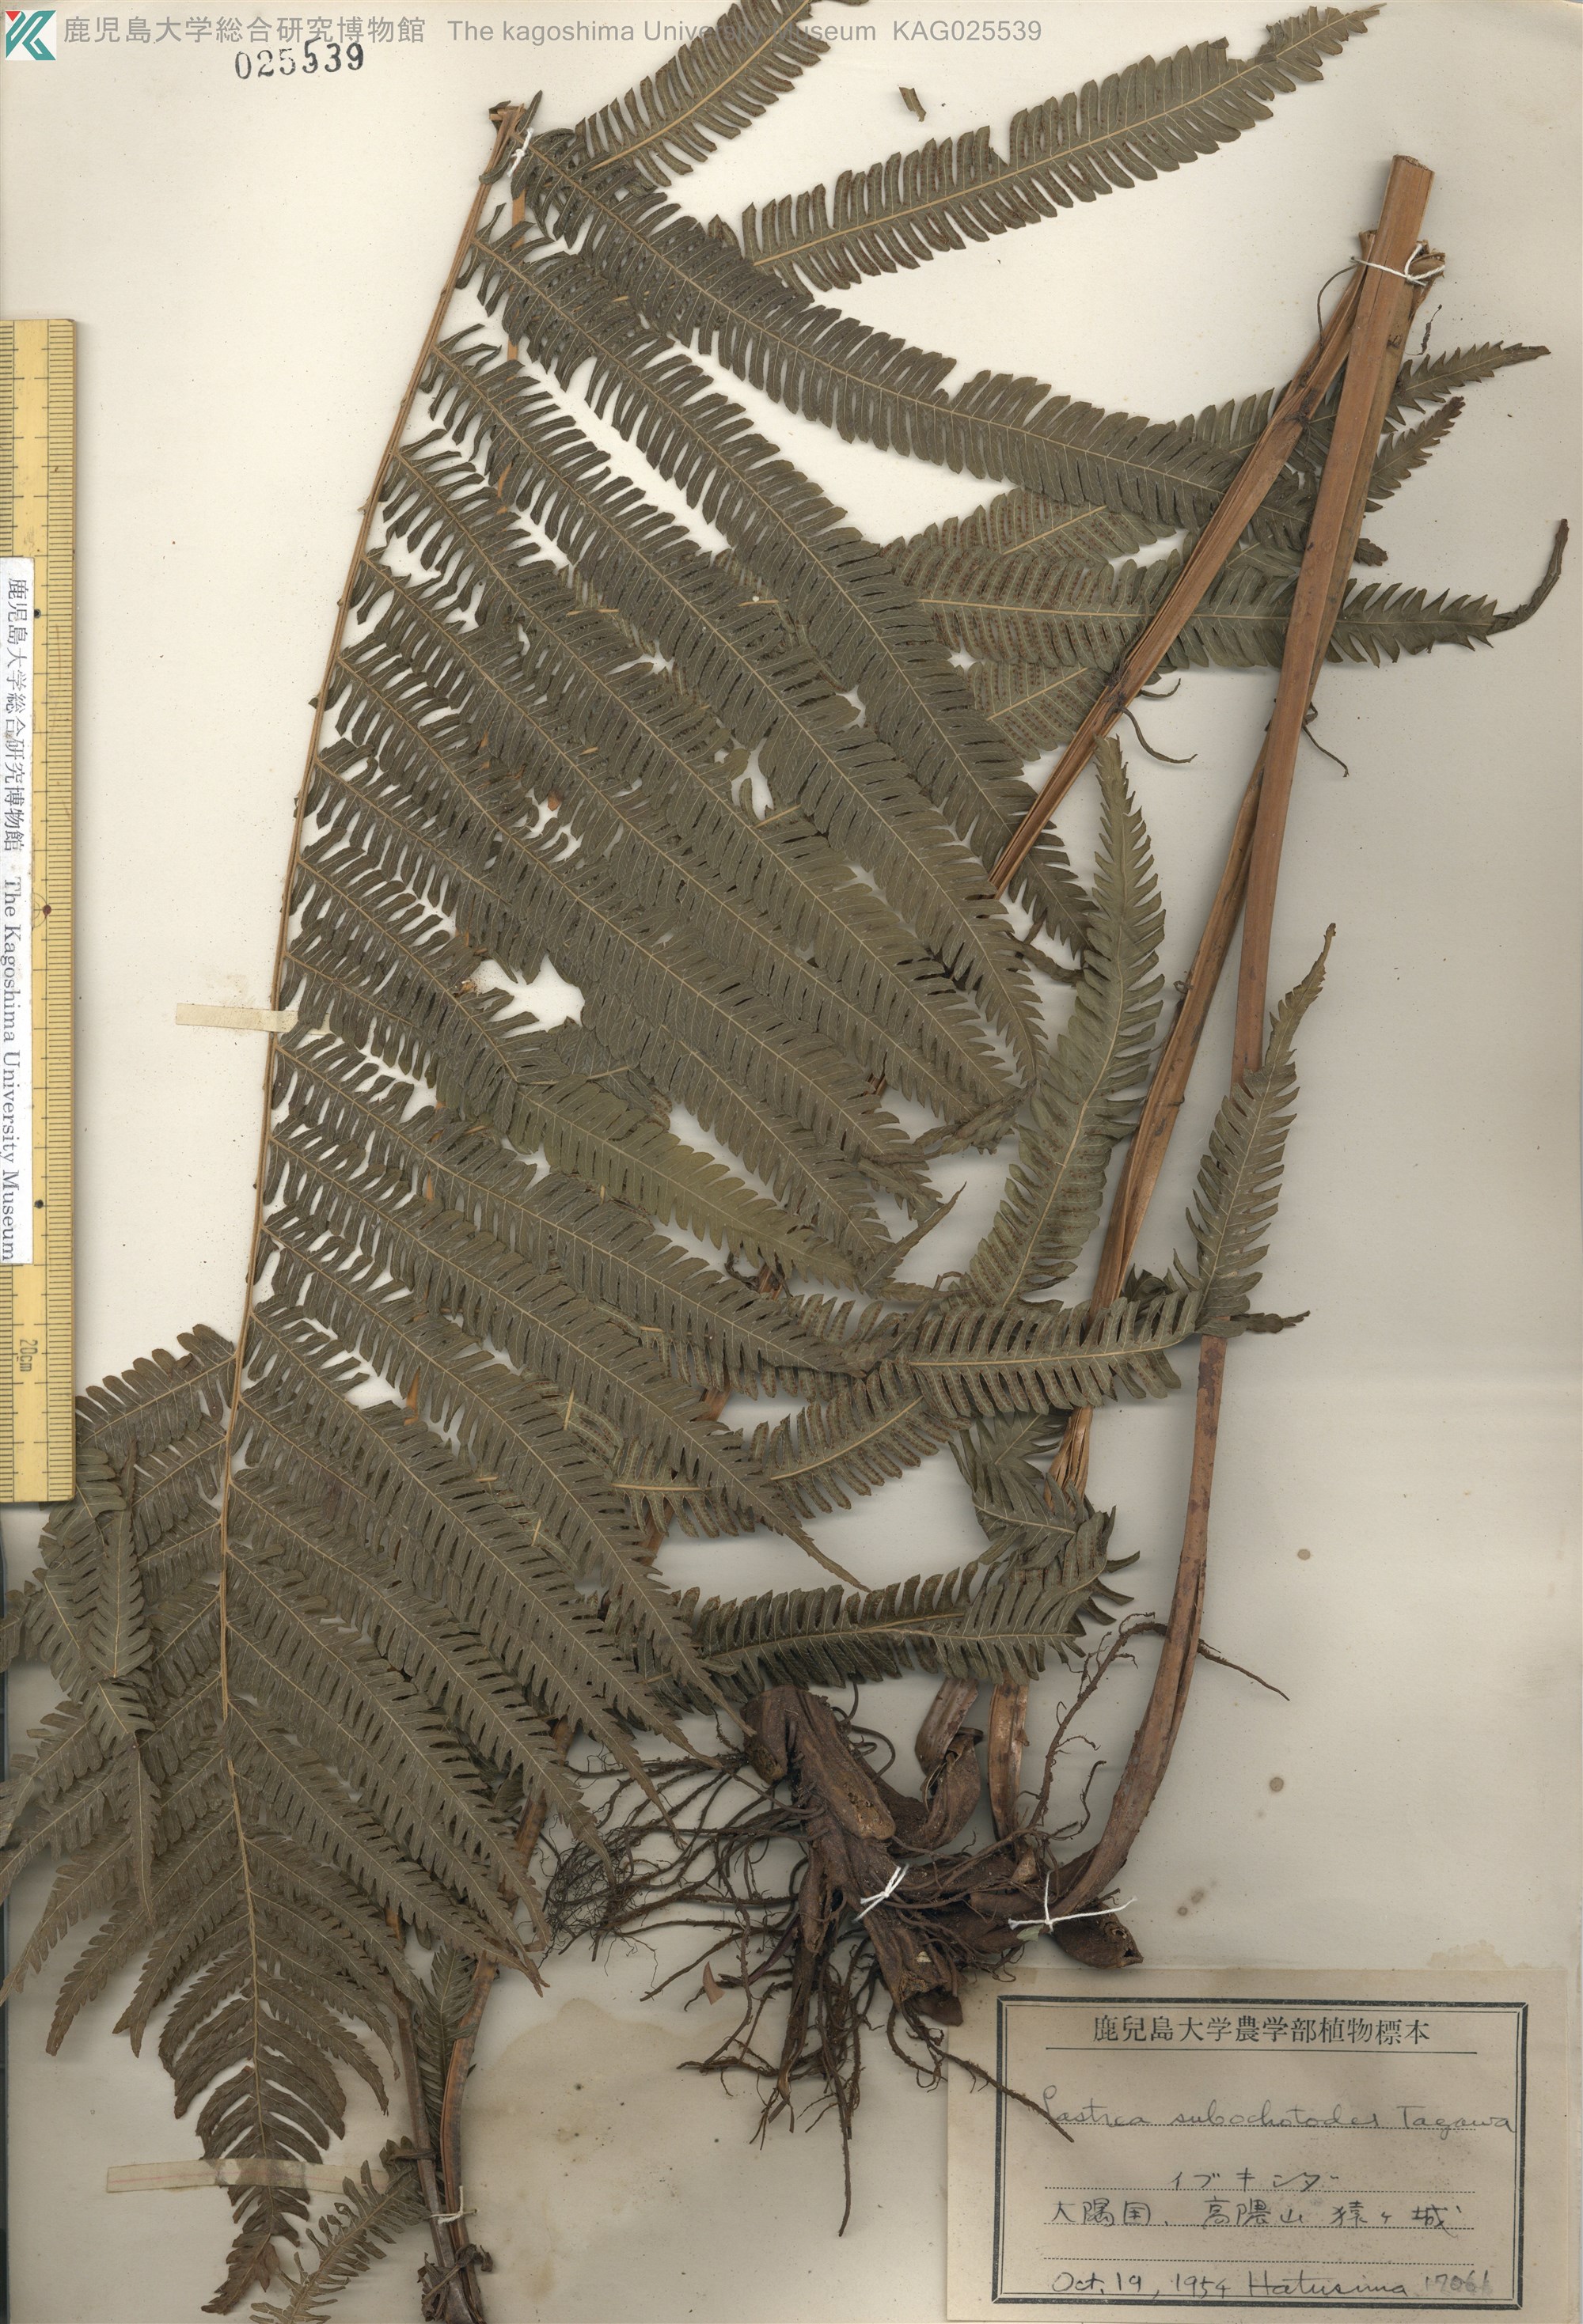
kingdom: Plantae
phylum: Tracheophyta
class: Polypodiopsida
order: Polypodiales
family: Thelypteridaceae
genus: Pseudocyclosorus
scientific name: Pseudocyclosorus esquirolii
